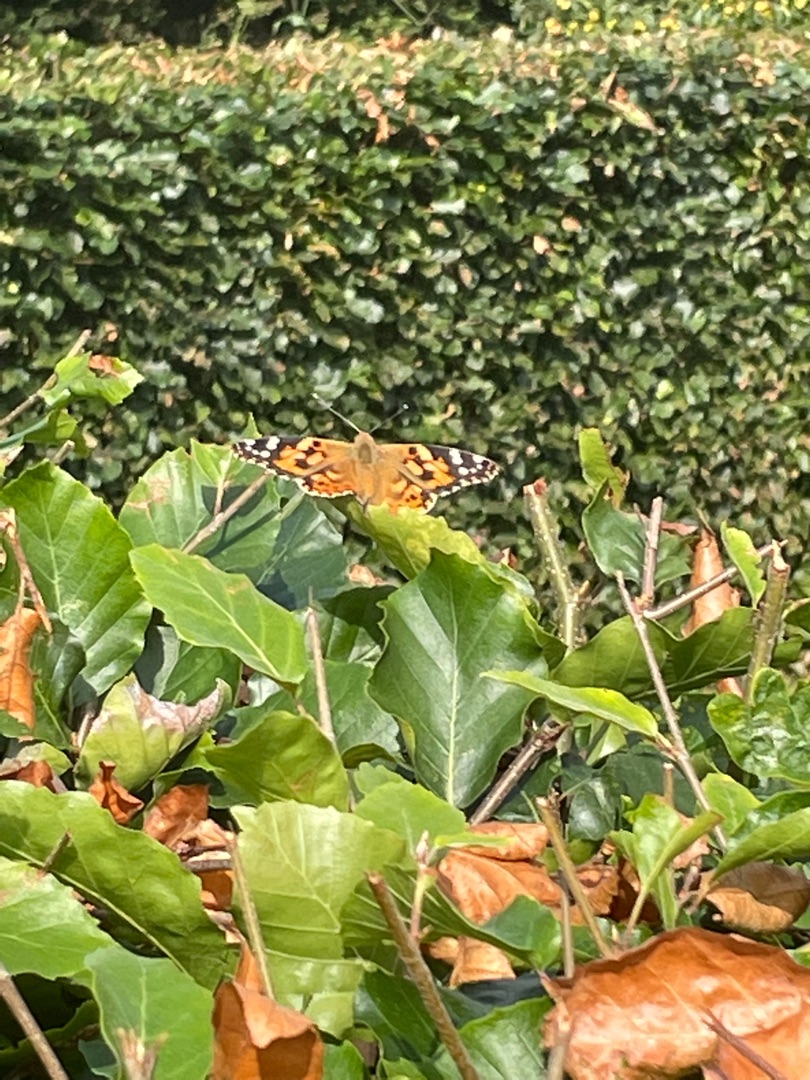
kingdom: Animalia
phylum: Arthropoda
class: Insecta
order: Lepidoptera
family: Nymphalidae
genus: Vanessa
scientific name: Vanessa cardui
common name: Tidselsommerfugl
